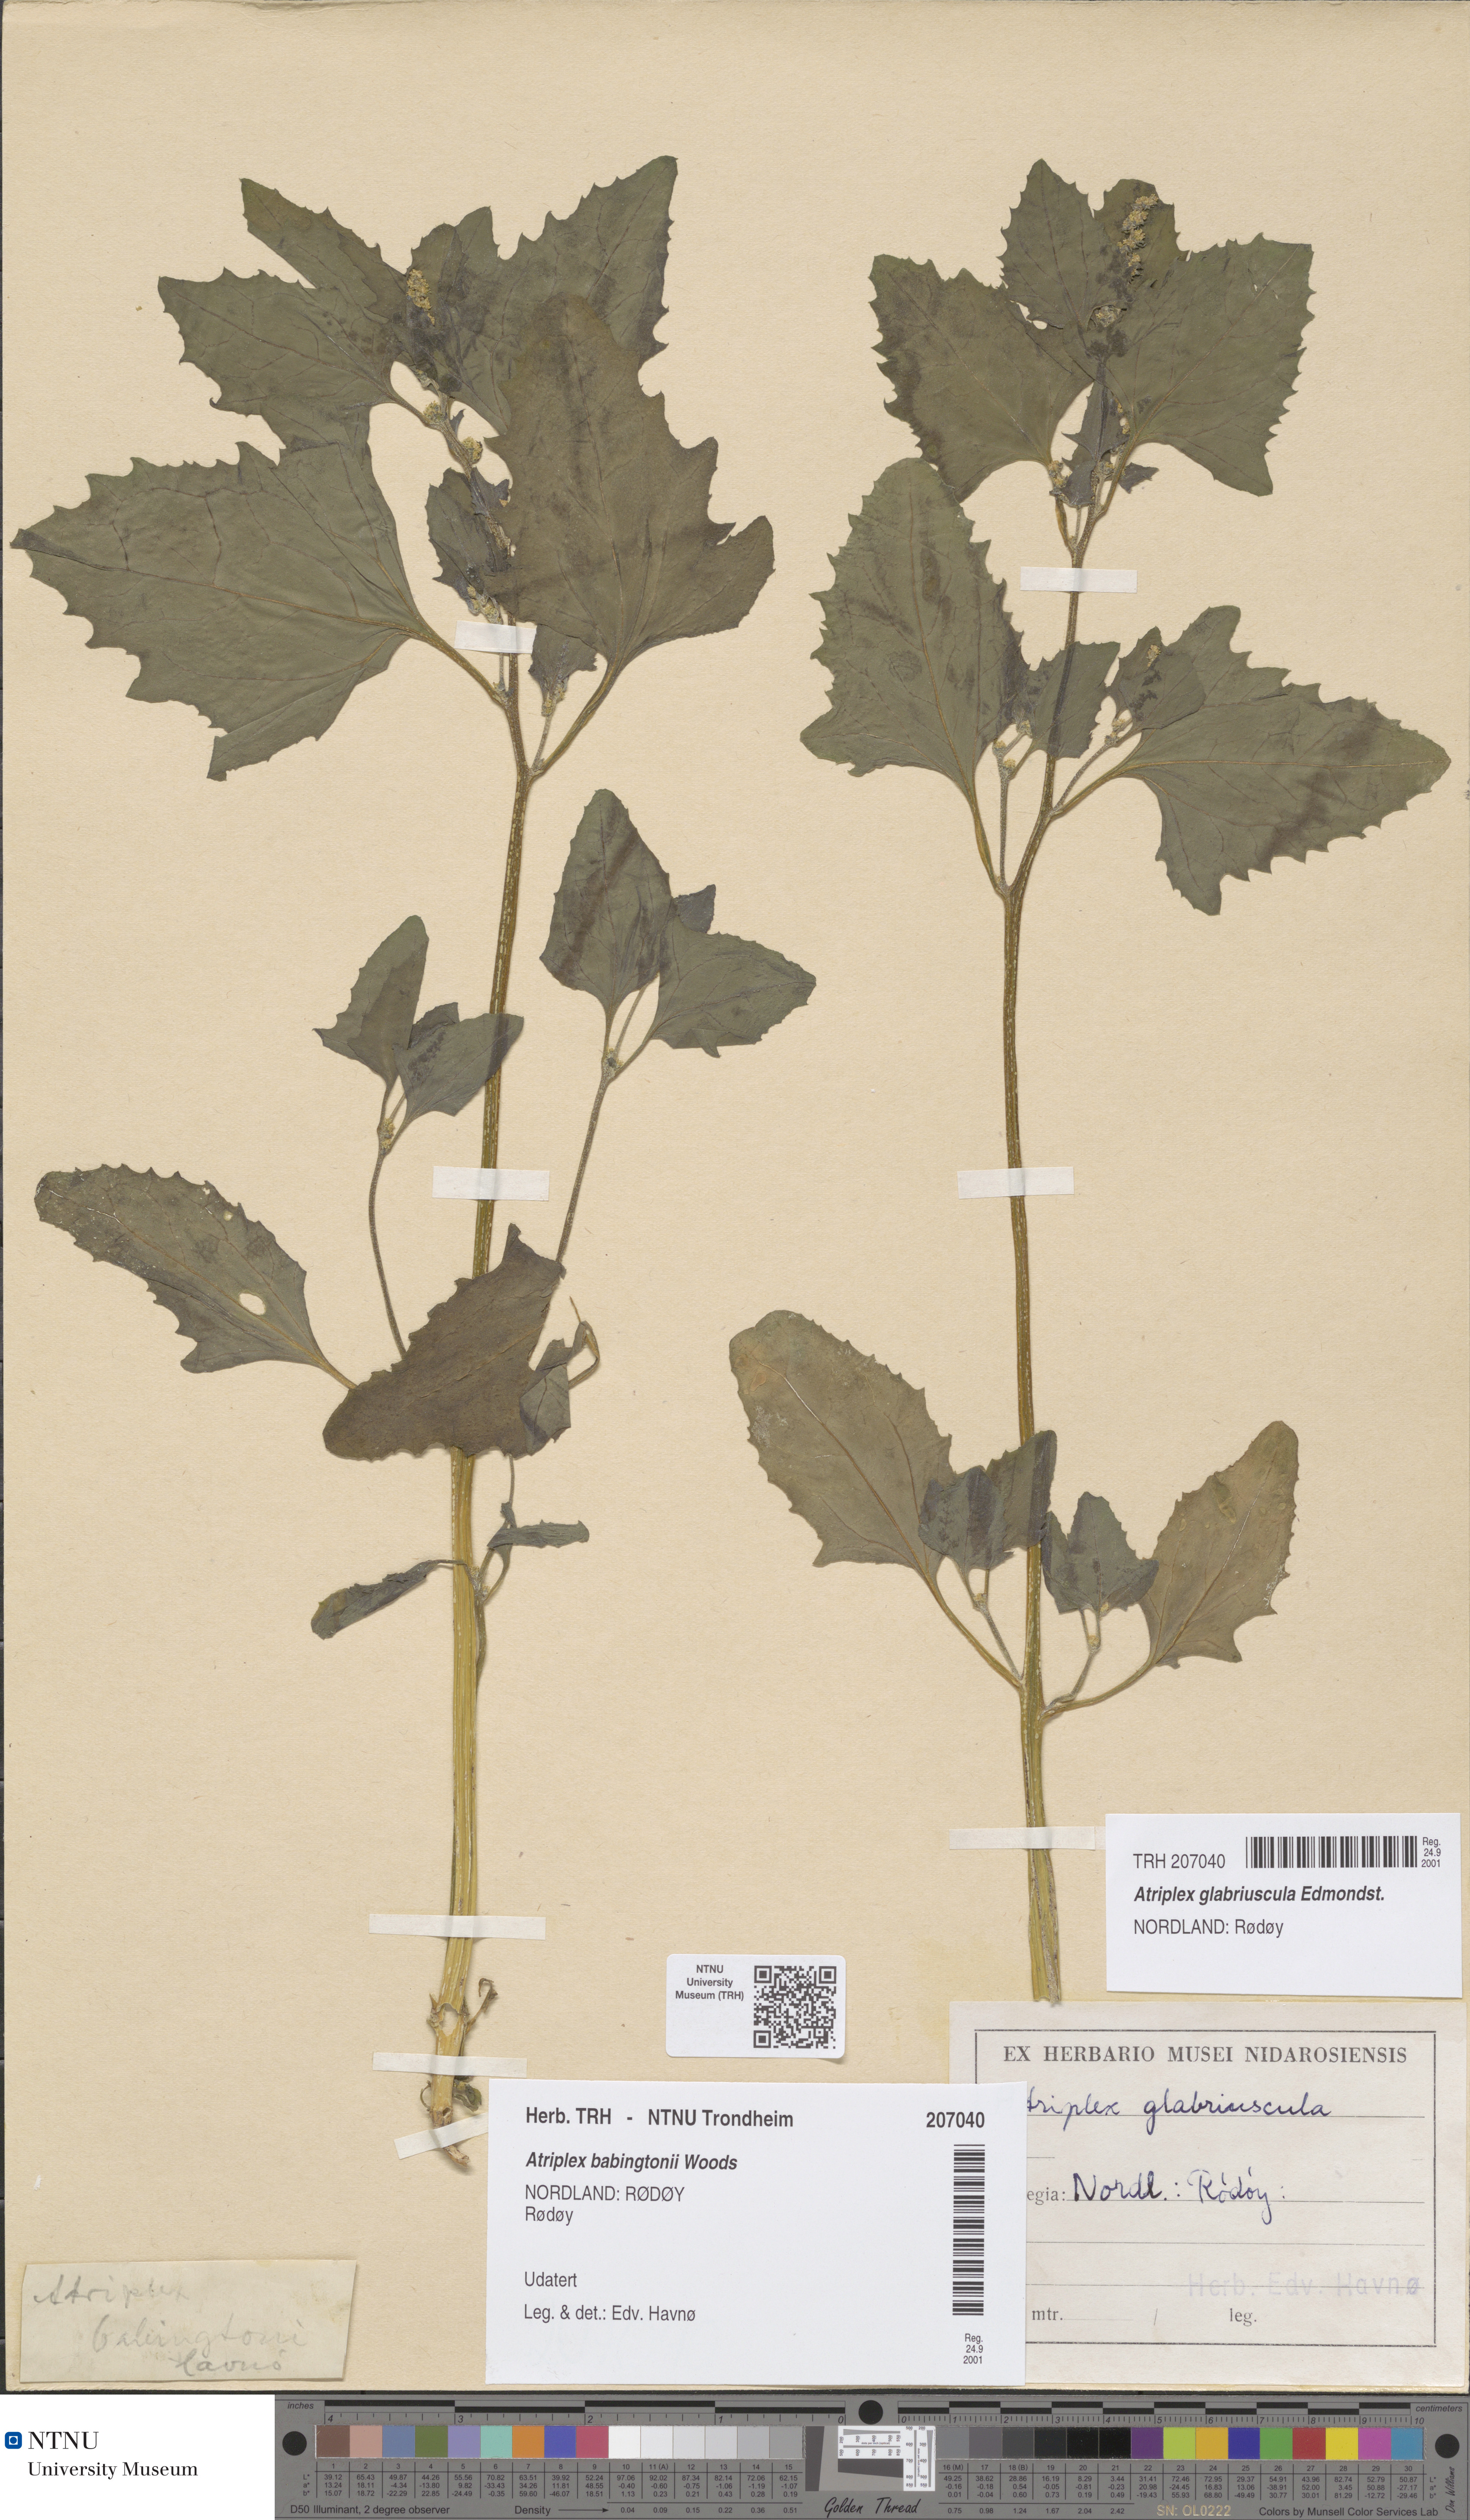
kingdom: Plantae
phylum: Tracheophyta
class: Magnoliopsida
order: Caryophyllales
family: Amaranthaceae
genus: Atriplex
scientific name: Atriplex glabriuscula
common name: Babington's orache
